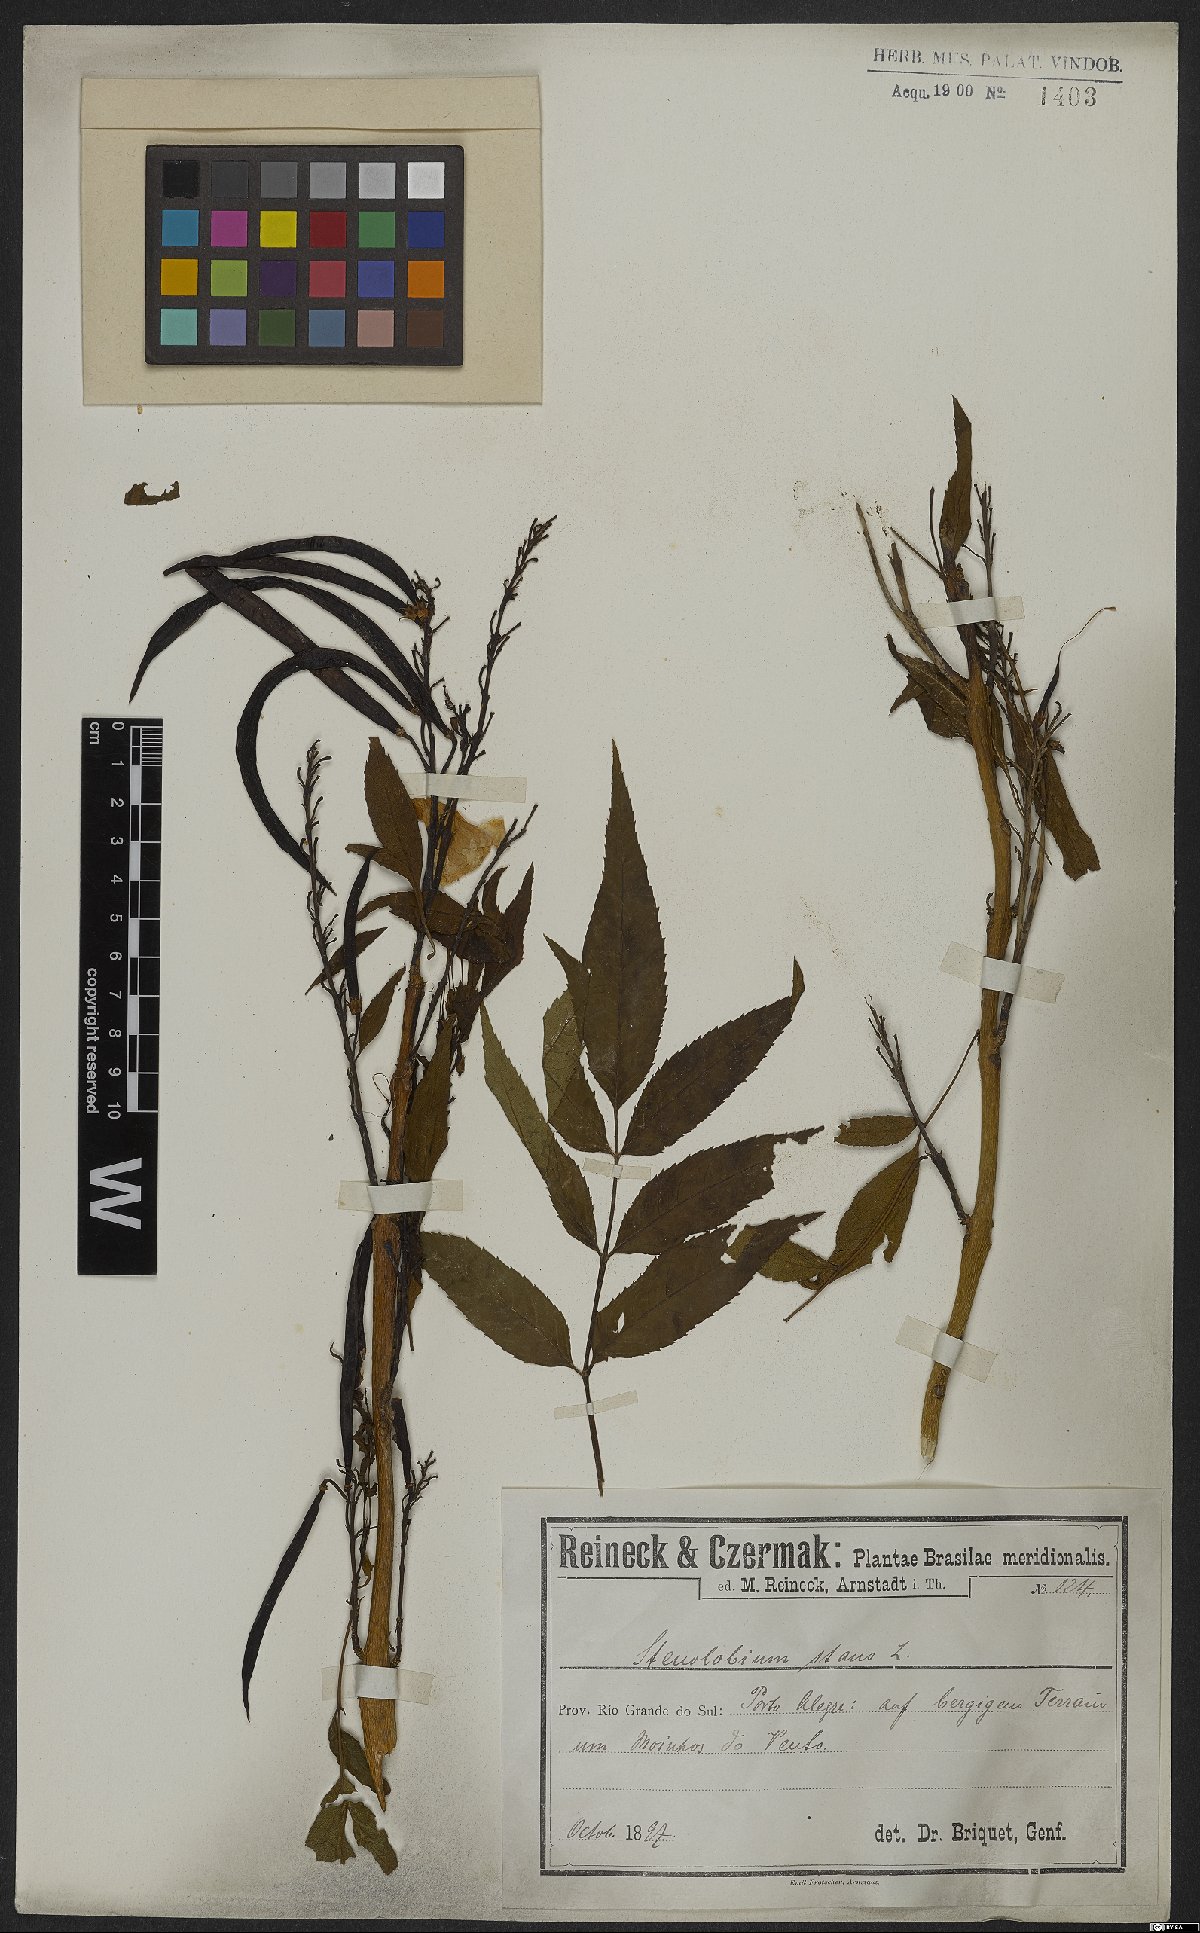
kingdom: Plantae
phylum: Tracheophyta
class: Magnoliopsida
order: Lamiales
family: Bignoniaceae
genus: Tecoma
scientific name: Tecoma stans
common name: Yellow trumpetbush
